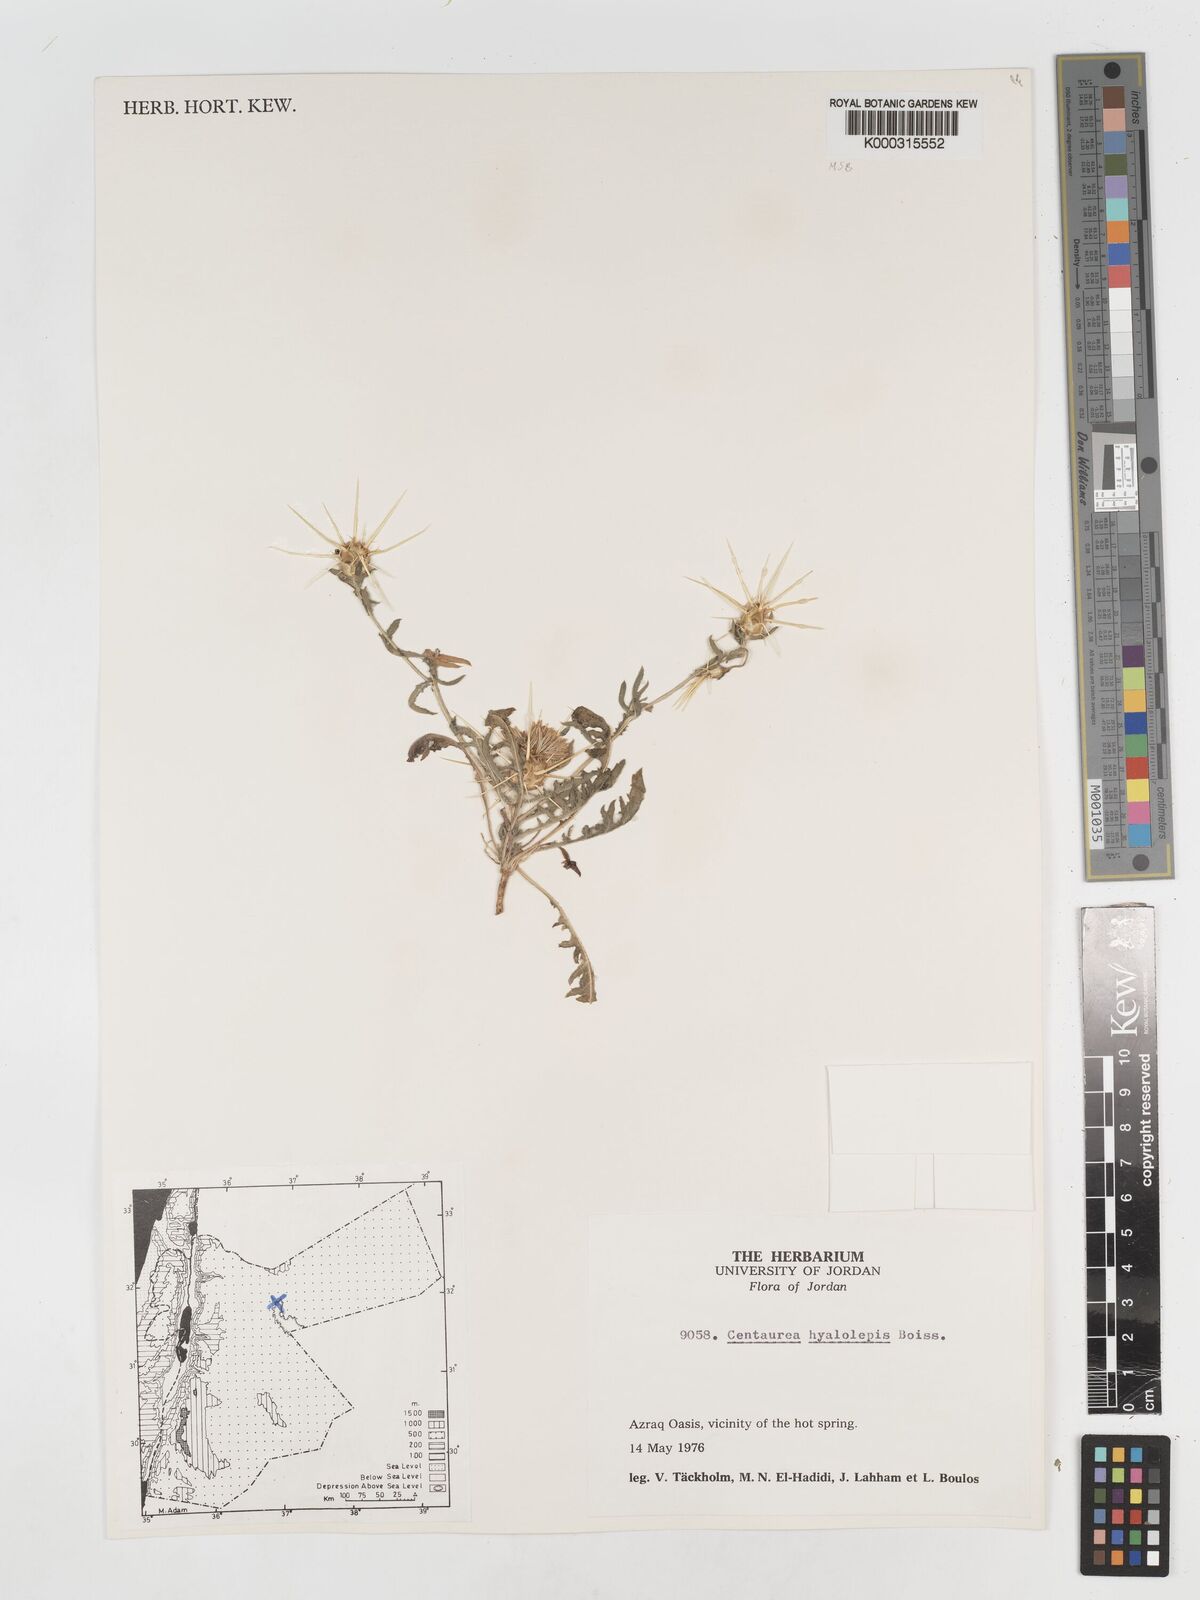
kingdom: Plantae
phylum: Tracheophyta
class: Magnoliopsida
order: Asterales
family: Asteraceae
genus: Centaurea
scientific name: Centaurea hyalolepis
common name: Eastern star-thistle
